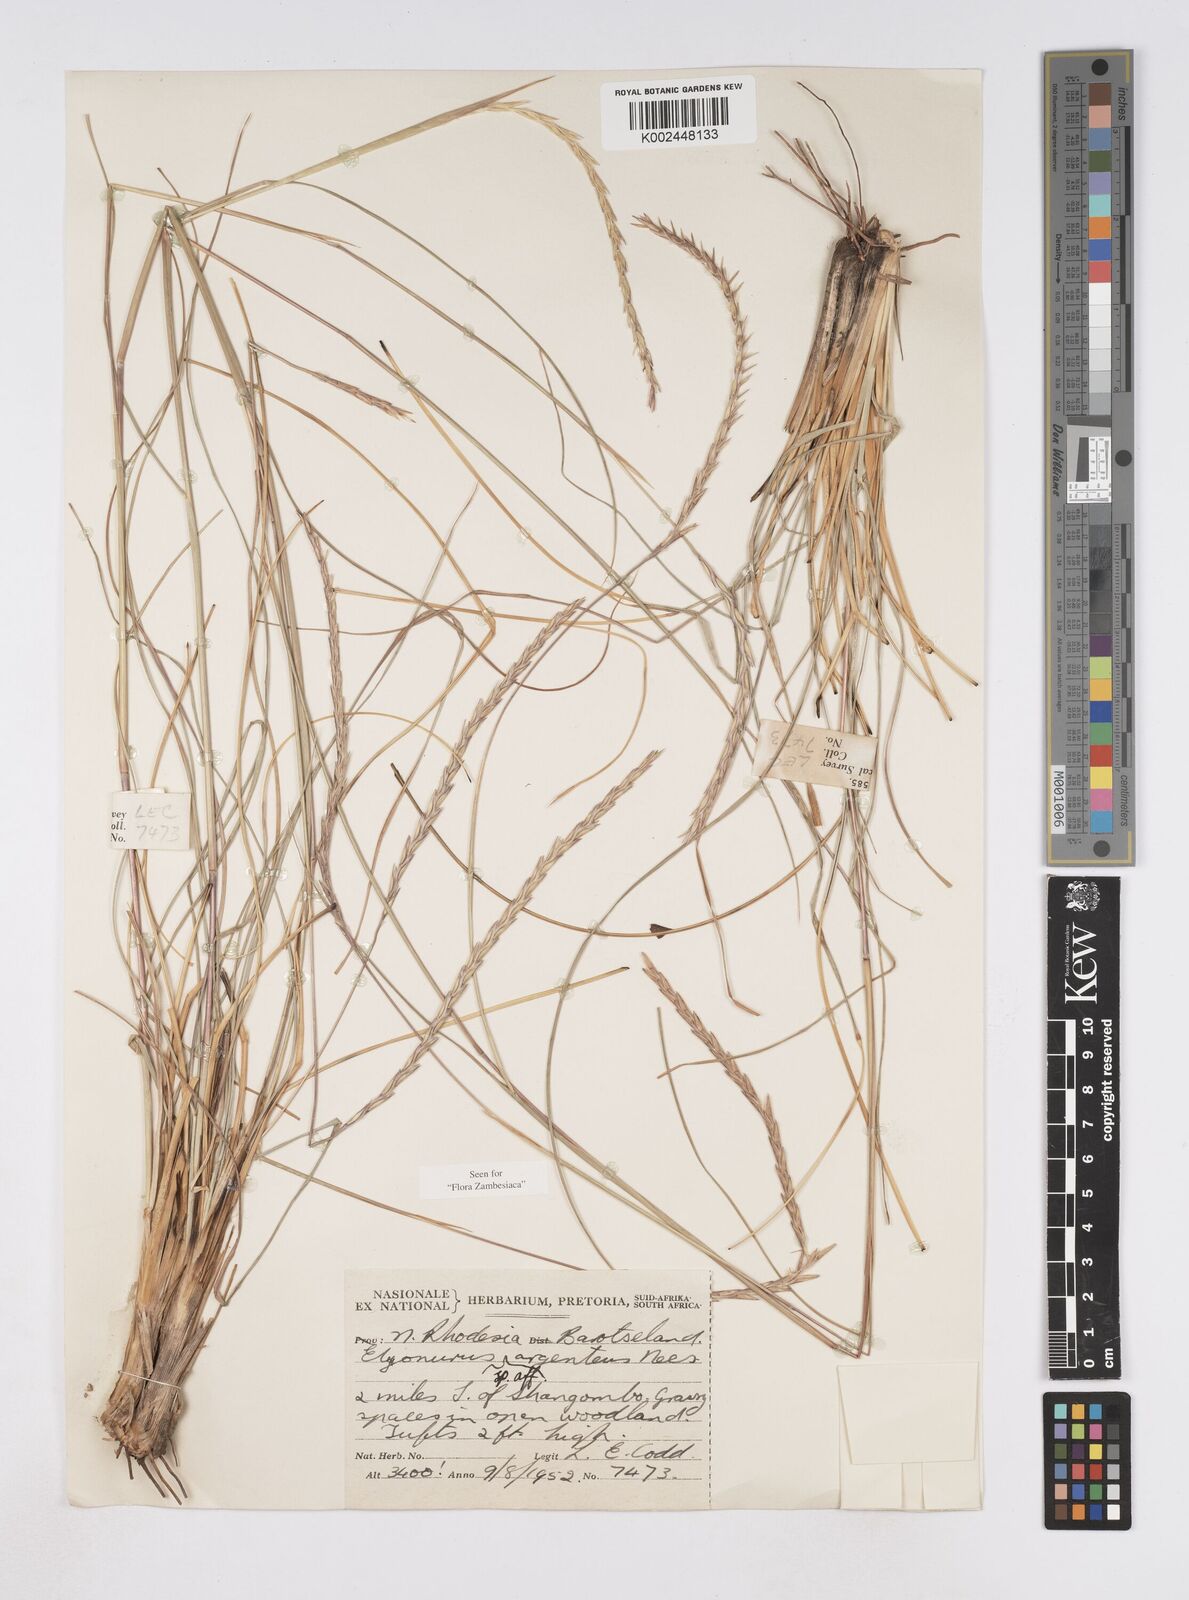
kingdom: Plantae
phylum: Tracheophyta
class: Liliopsida
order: Poales
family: Poaceae
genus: Elionurus
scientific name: Elionurus tripsacoides
